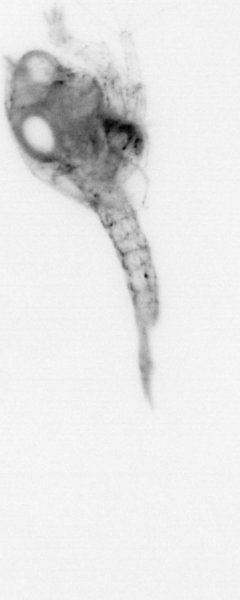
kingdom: Animalia
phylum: Arthropoda
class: Malacostraca
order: Decapoda
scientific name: Decapoda
